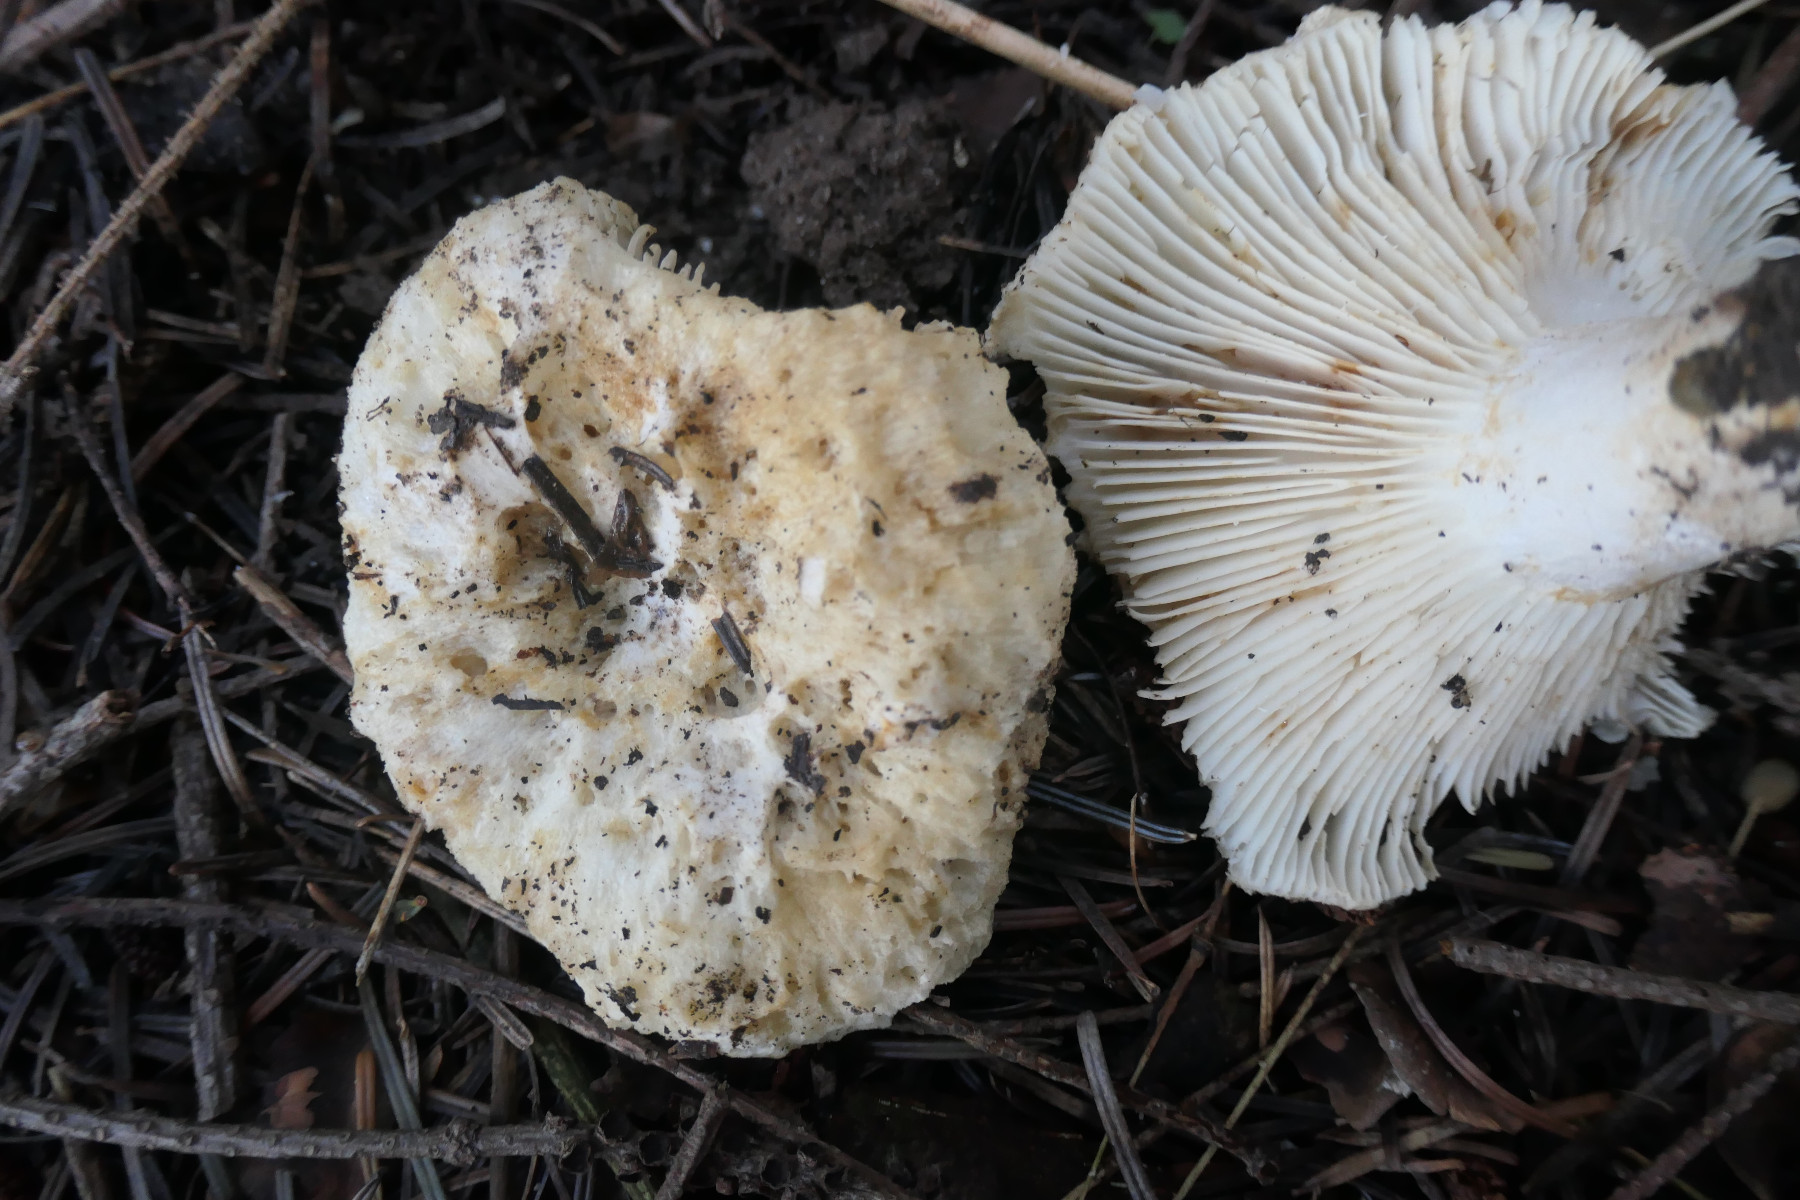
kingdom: Fungi
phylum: Basidiomycota
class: Agaricomycetes
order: Russulales
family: Russulaceae
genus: Russula
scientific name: Russula delica
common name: almindelig tragt-skørhat
